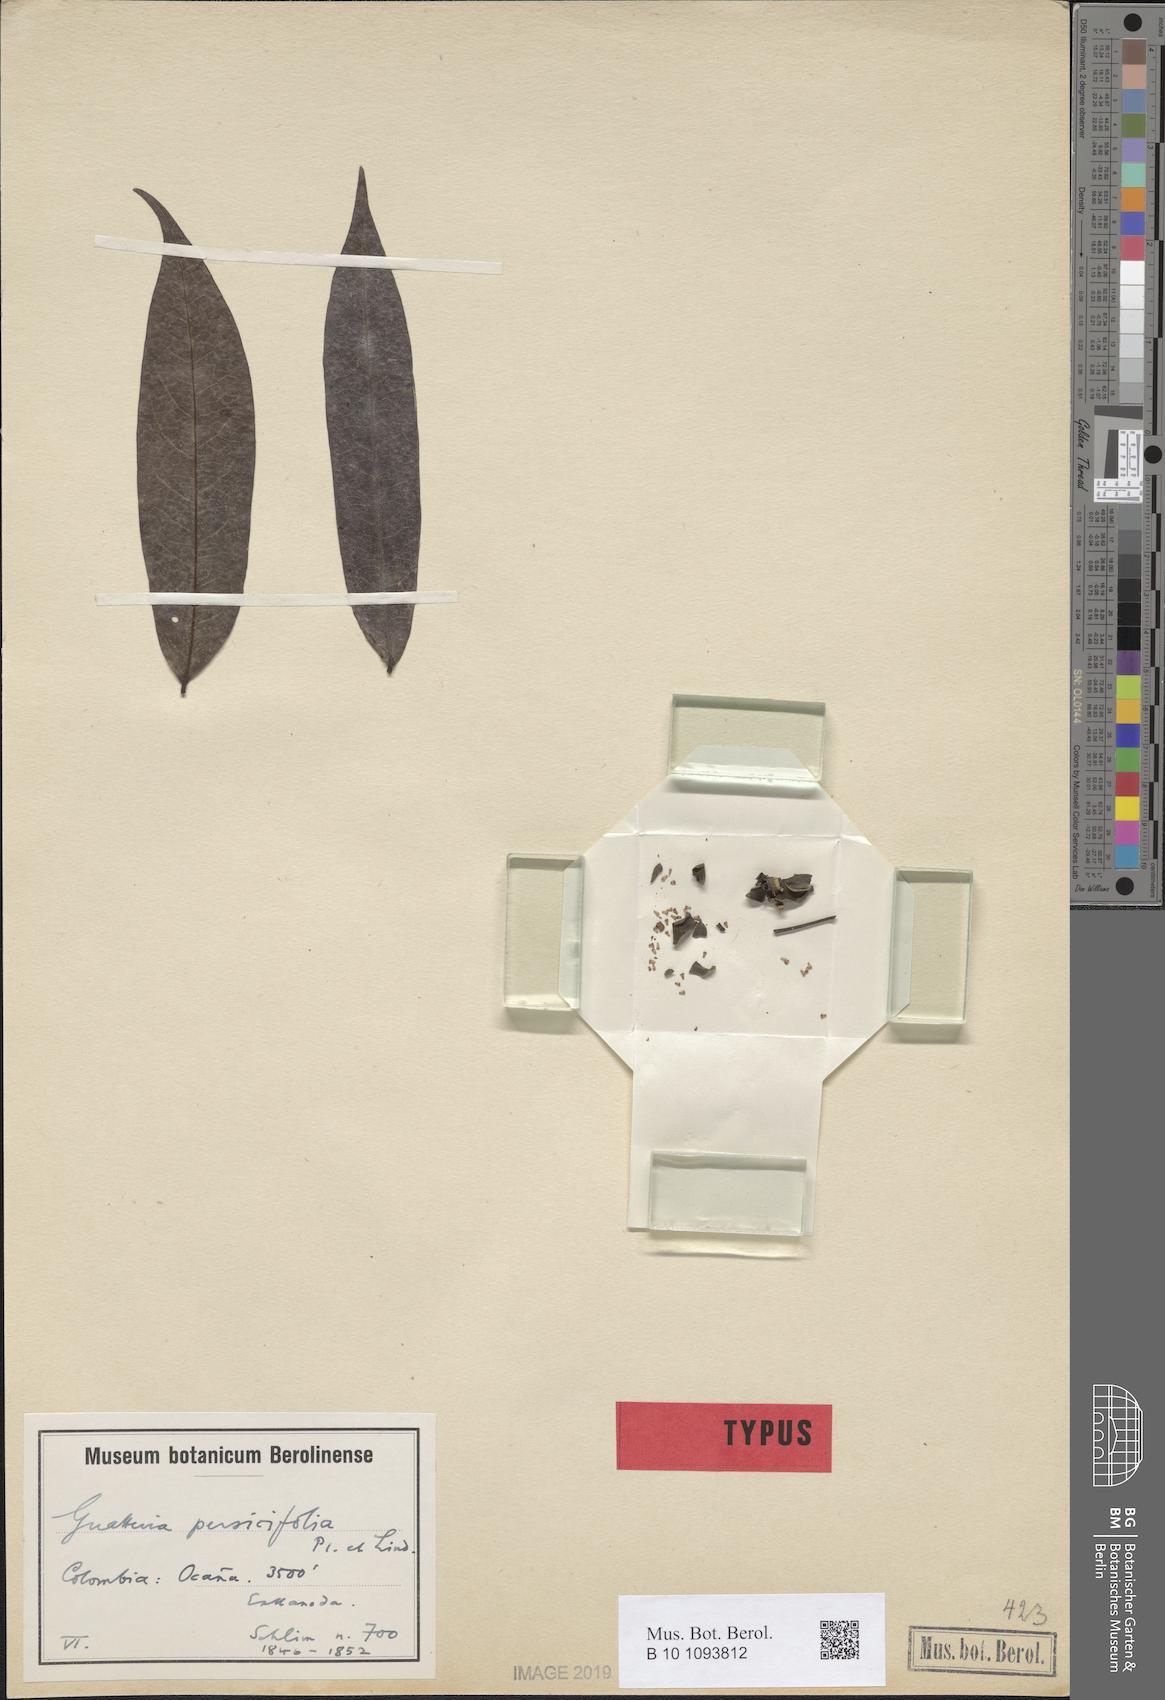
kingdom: Plantae
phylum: Tracheophyta
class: Magnoliopsida
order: Magnoliales
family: Annonaceae
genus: Guatteria
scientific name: Guatteria persicifolia
